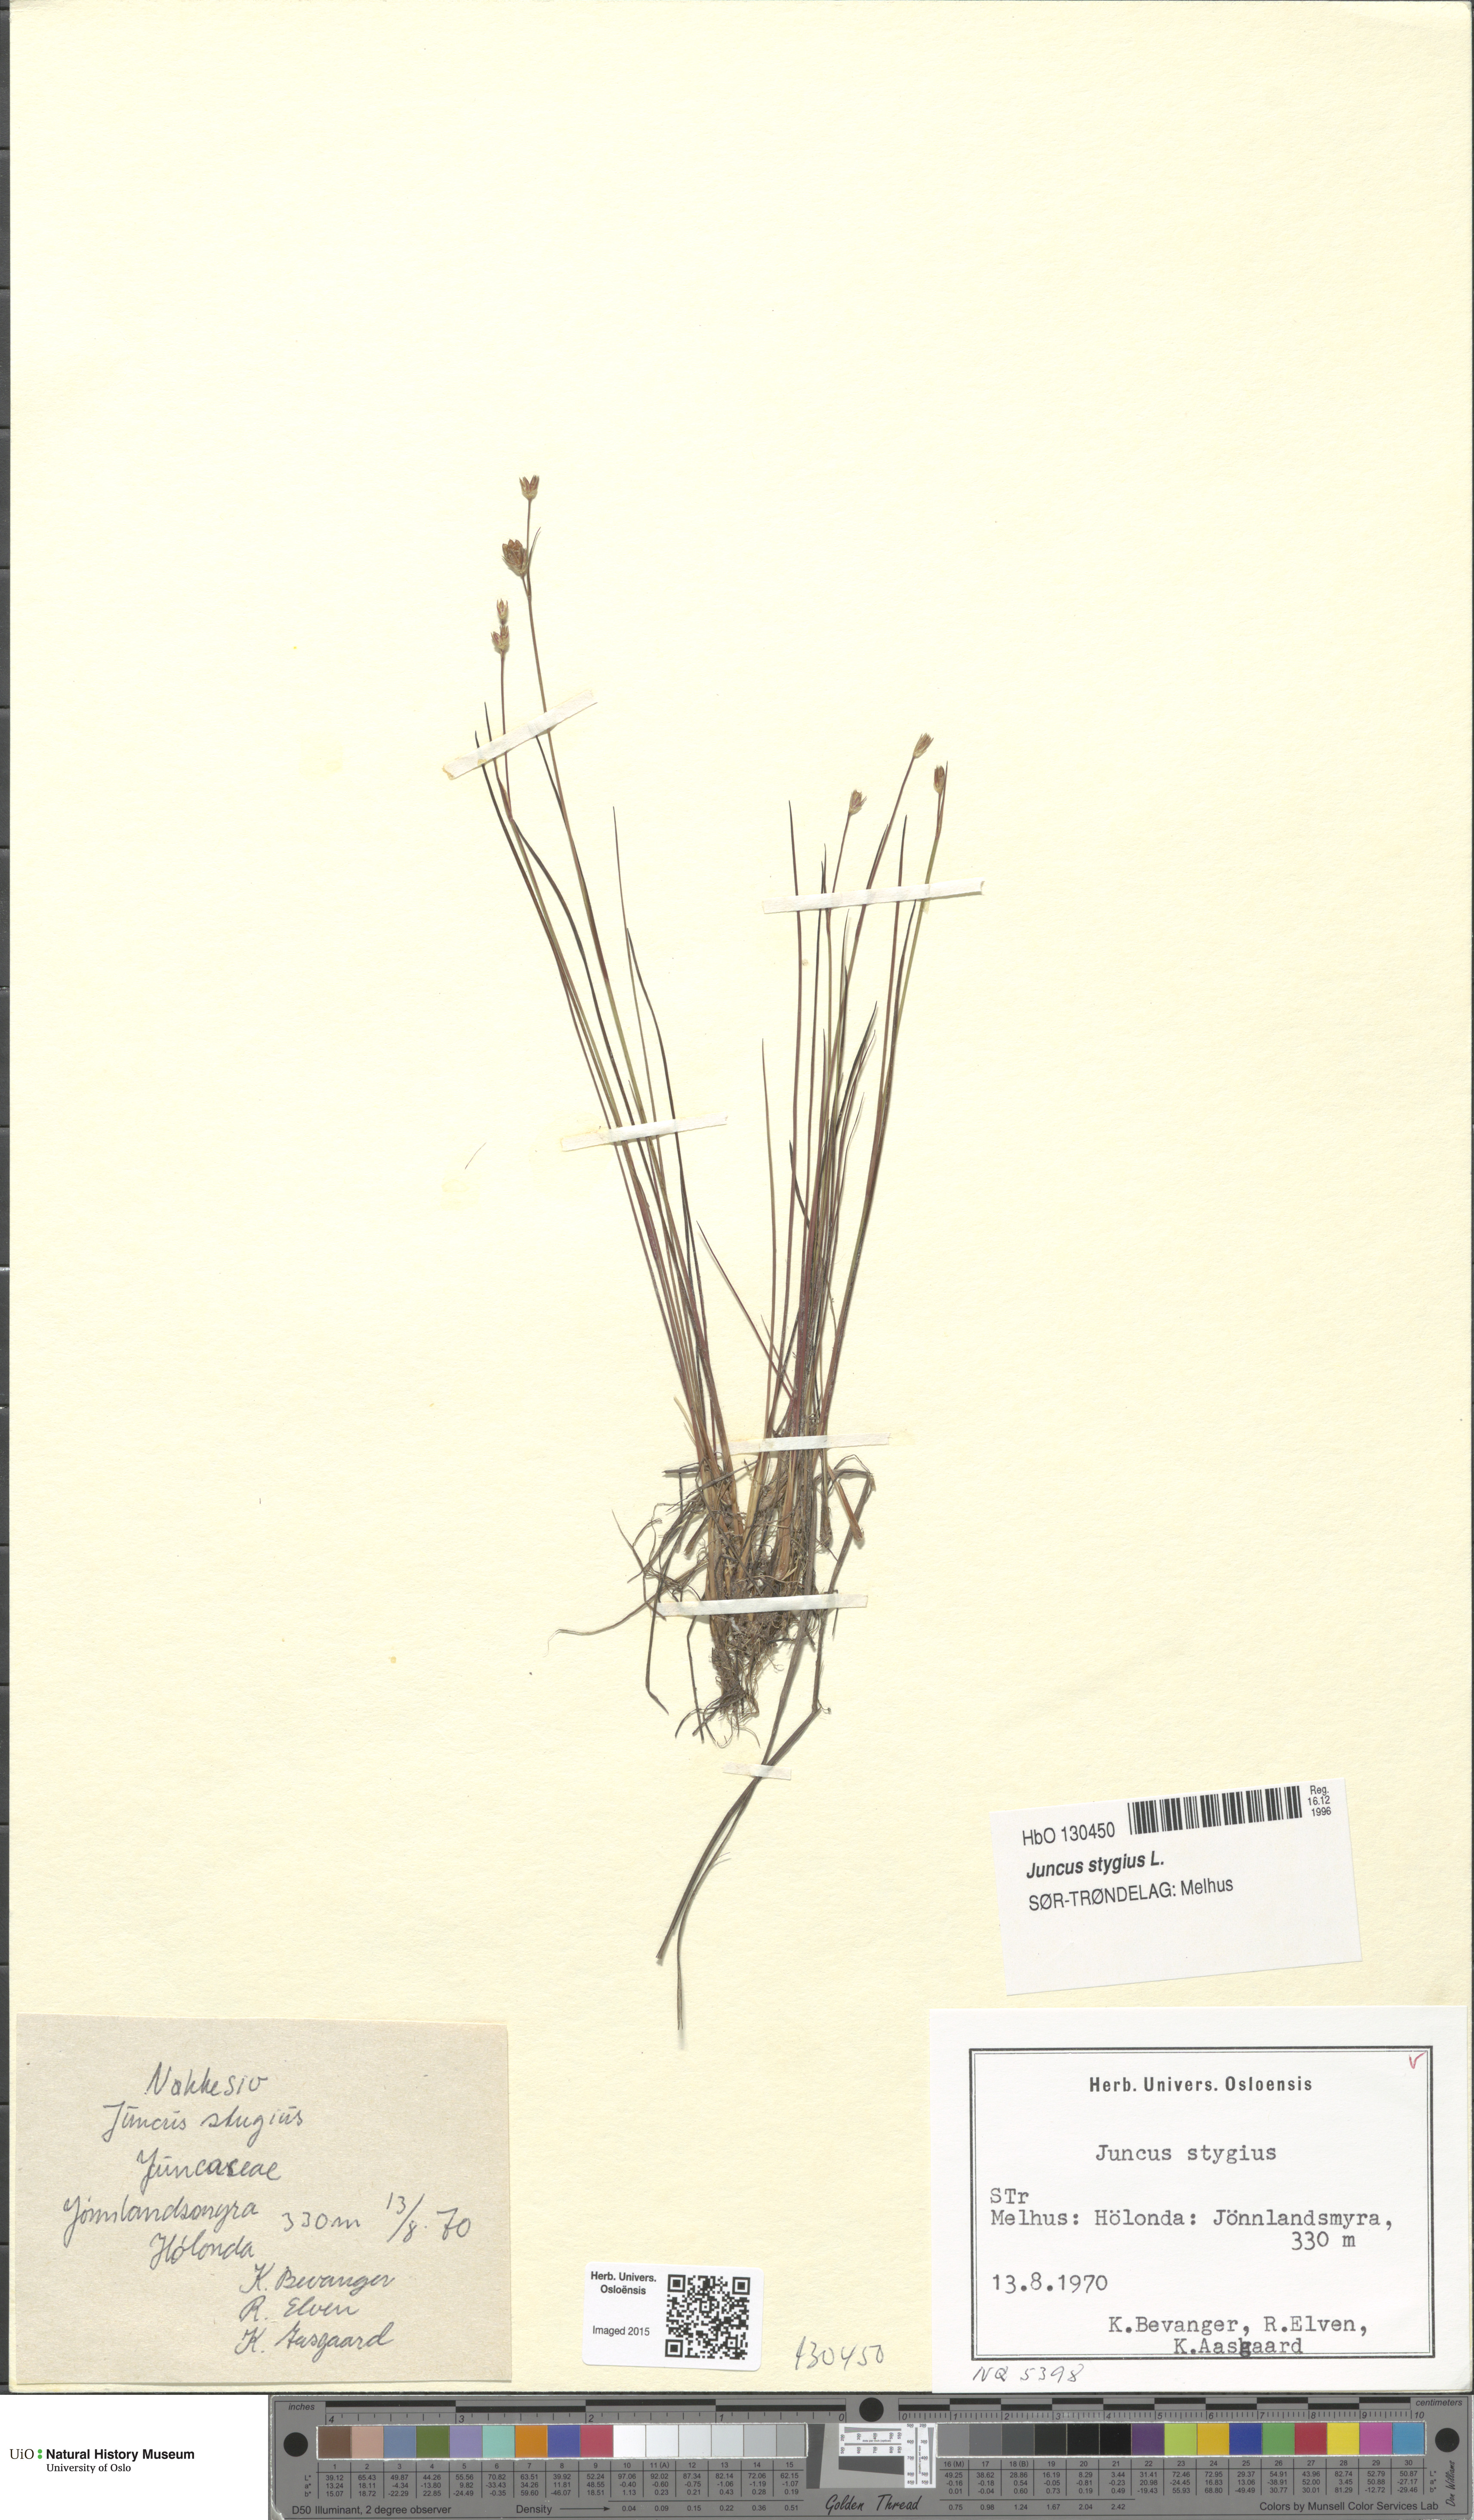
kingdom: Plantae
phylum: Tracheophyta
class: Liliopsida
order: Poales
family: Juncaceae
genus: Juncus
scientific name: Juncus stygius
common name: Bog rush
